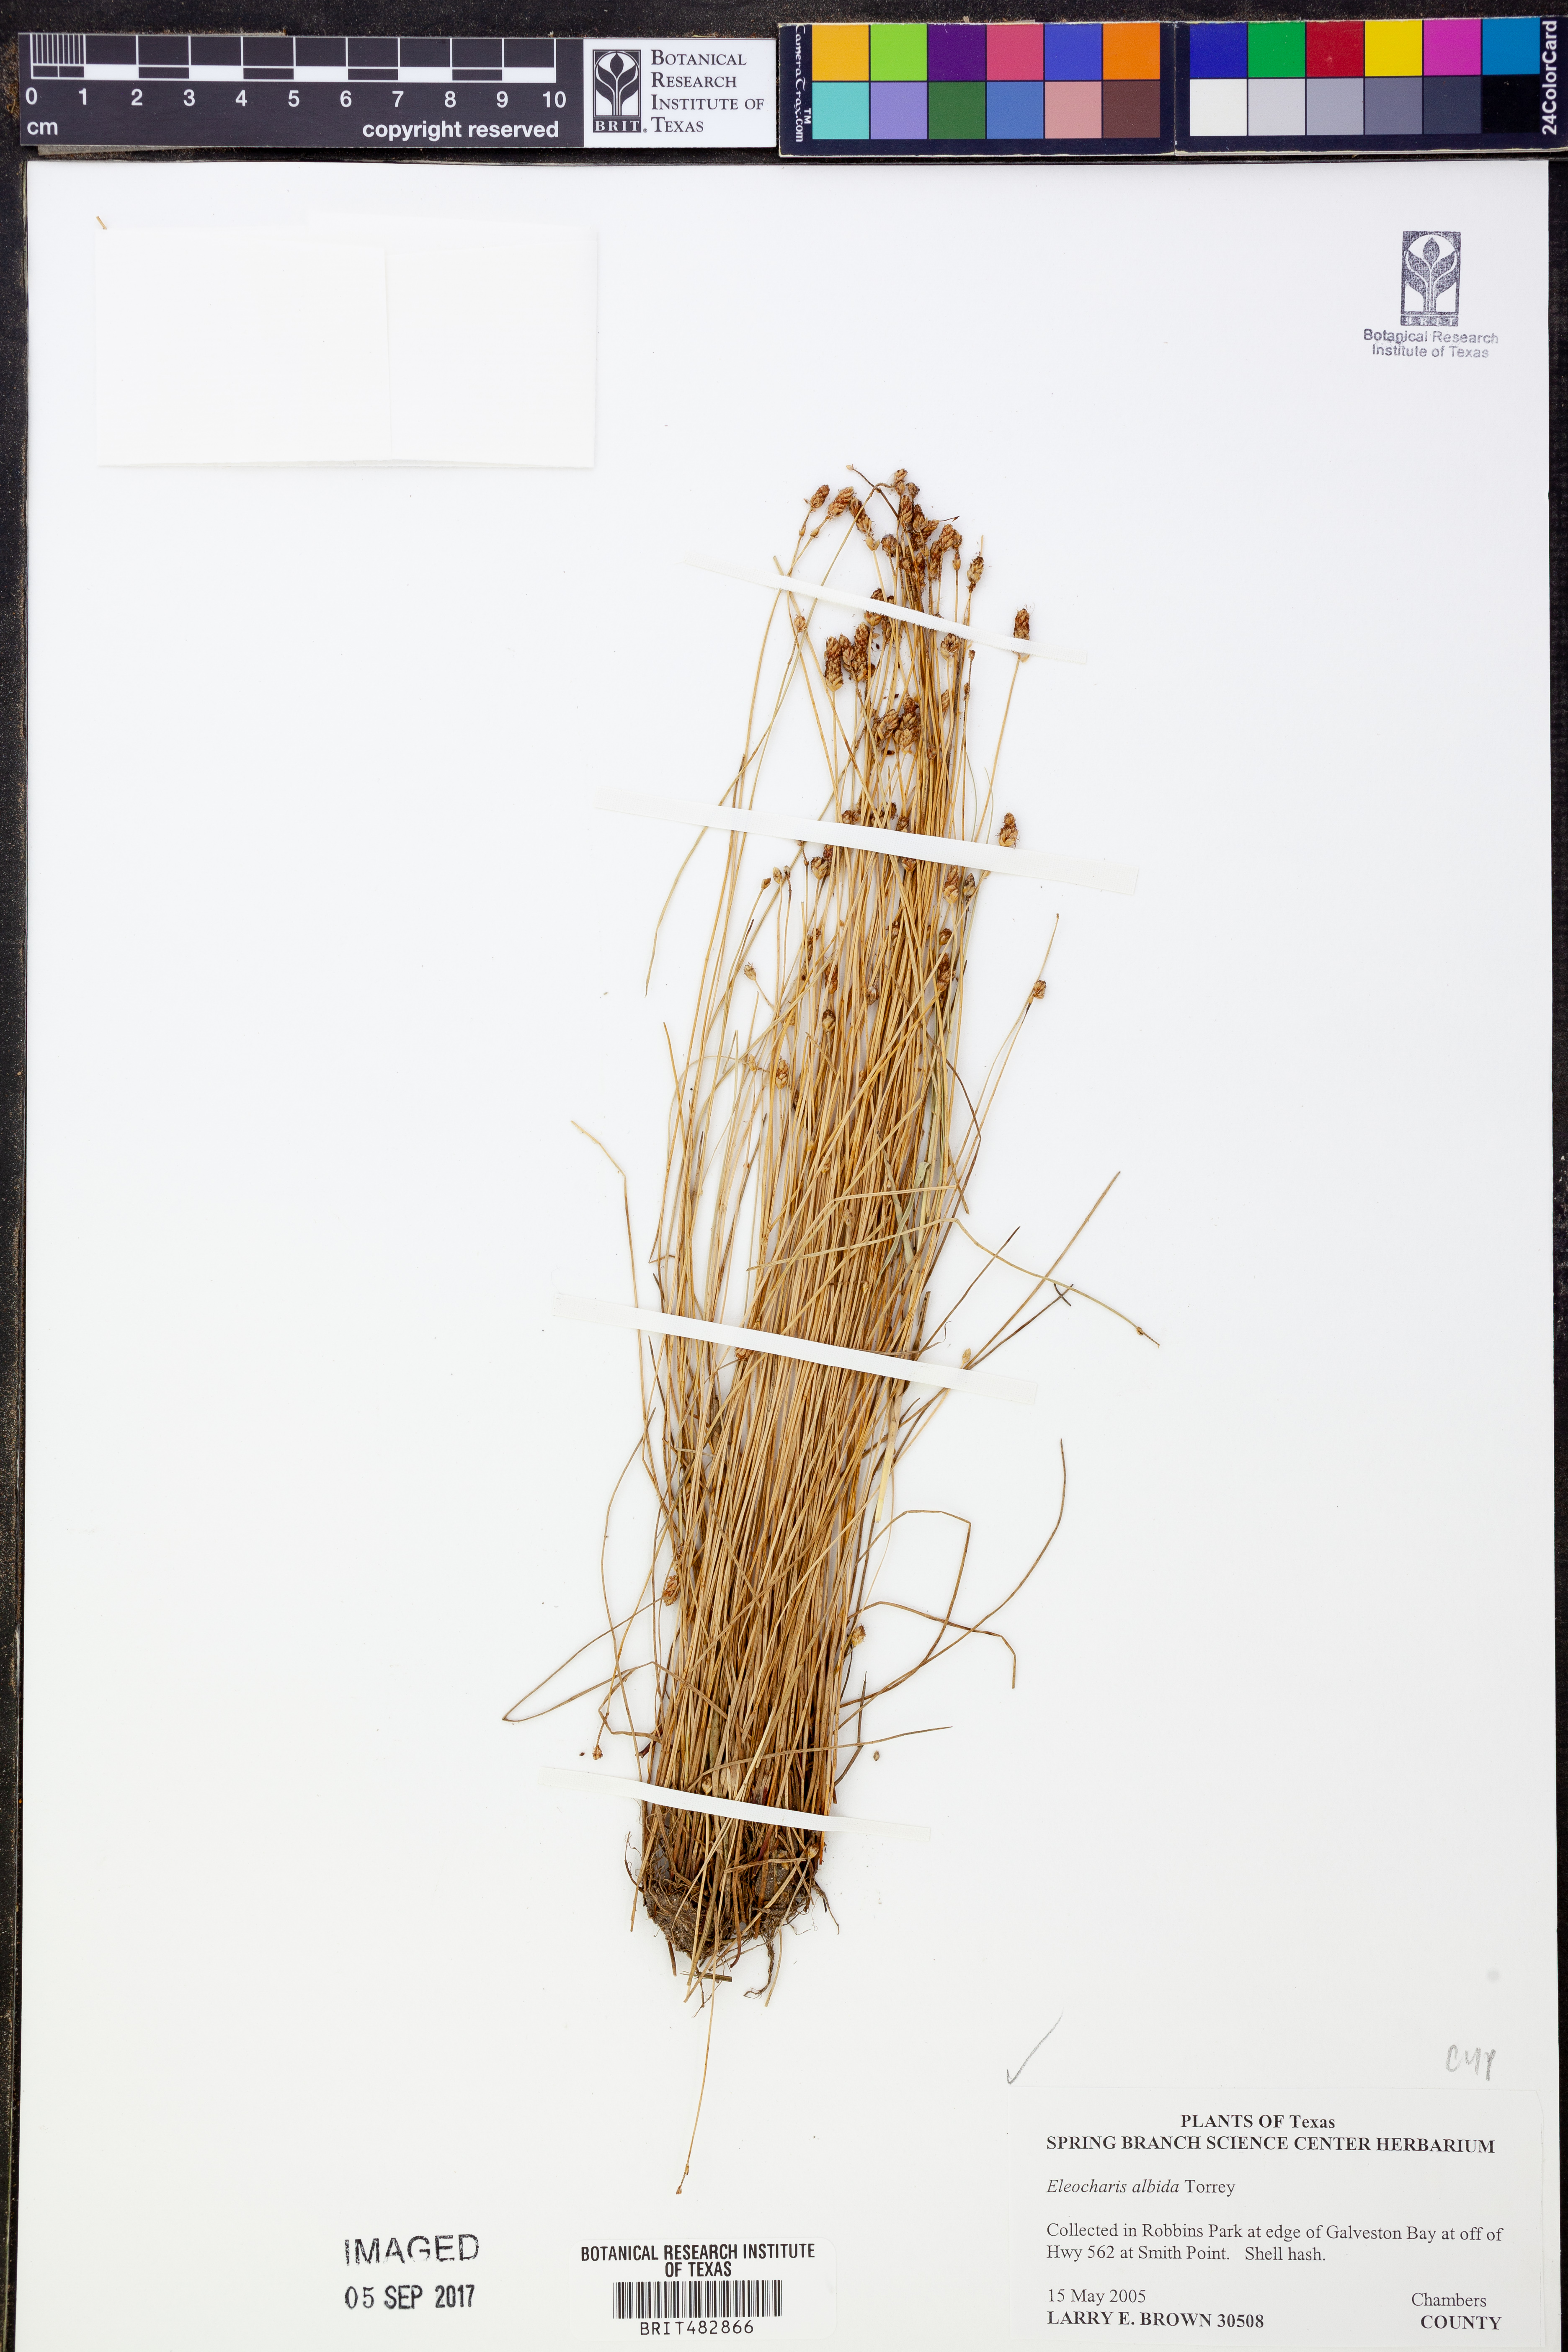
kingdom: Plantae
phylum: Tracheophyta
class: Liliopsida
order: Poales
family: Cyperaceae
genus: Eleocharis
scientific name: Eleocharis albida
